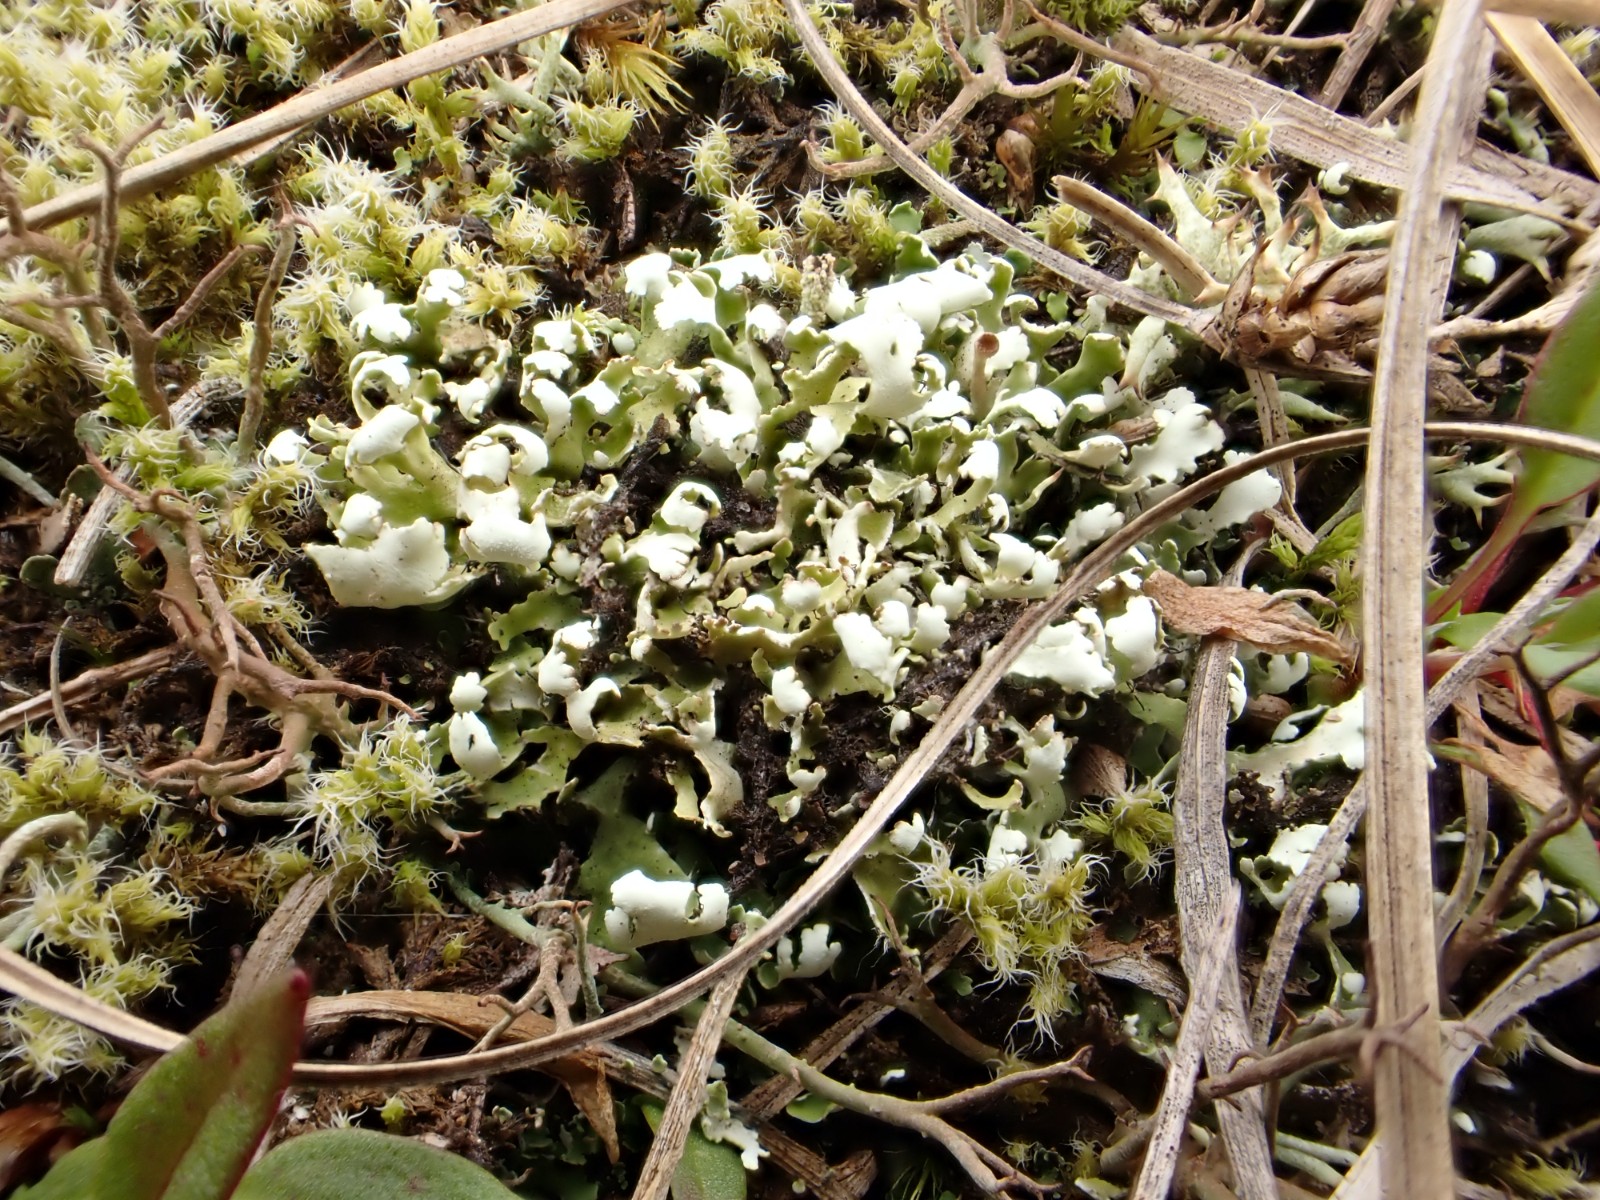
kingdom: Fungi
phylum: Ascomycota
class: Lecanoromycetes
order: Lecanorales
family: Cladoniaceae
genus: Cladonia
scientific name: Cladonia foliacea
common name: fliget bægerlav
